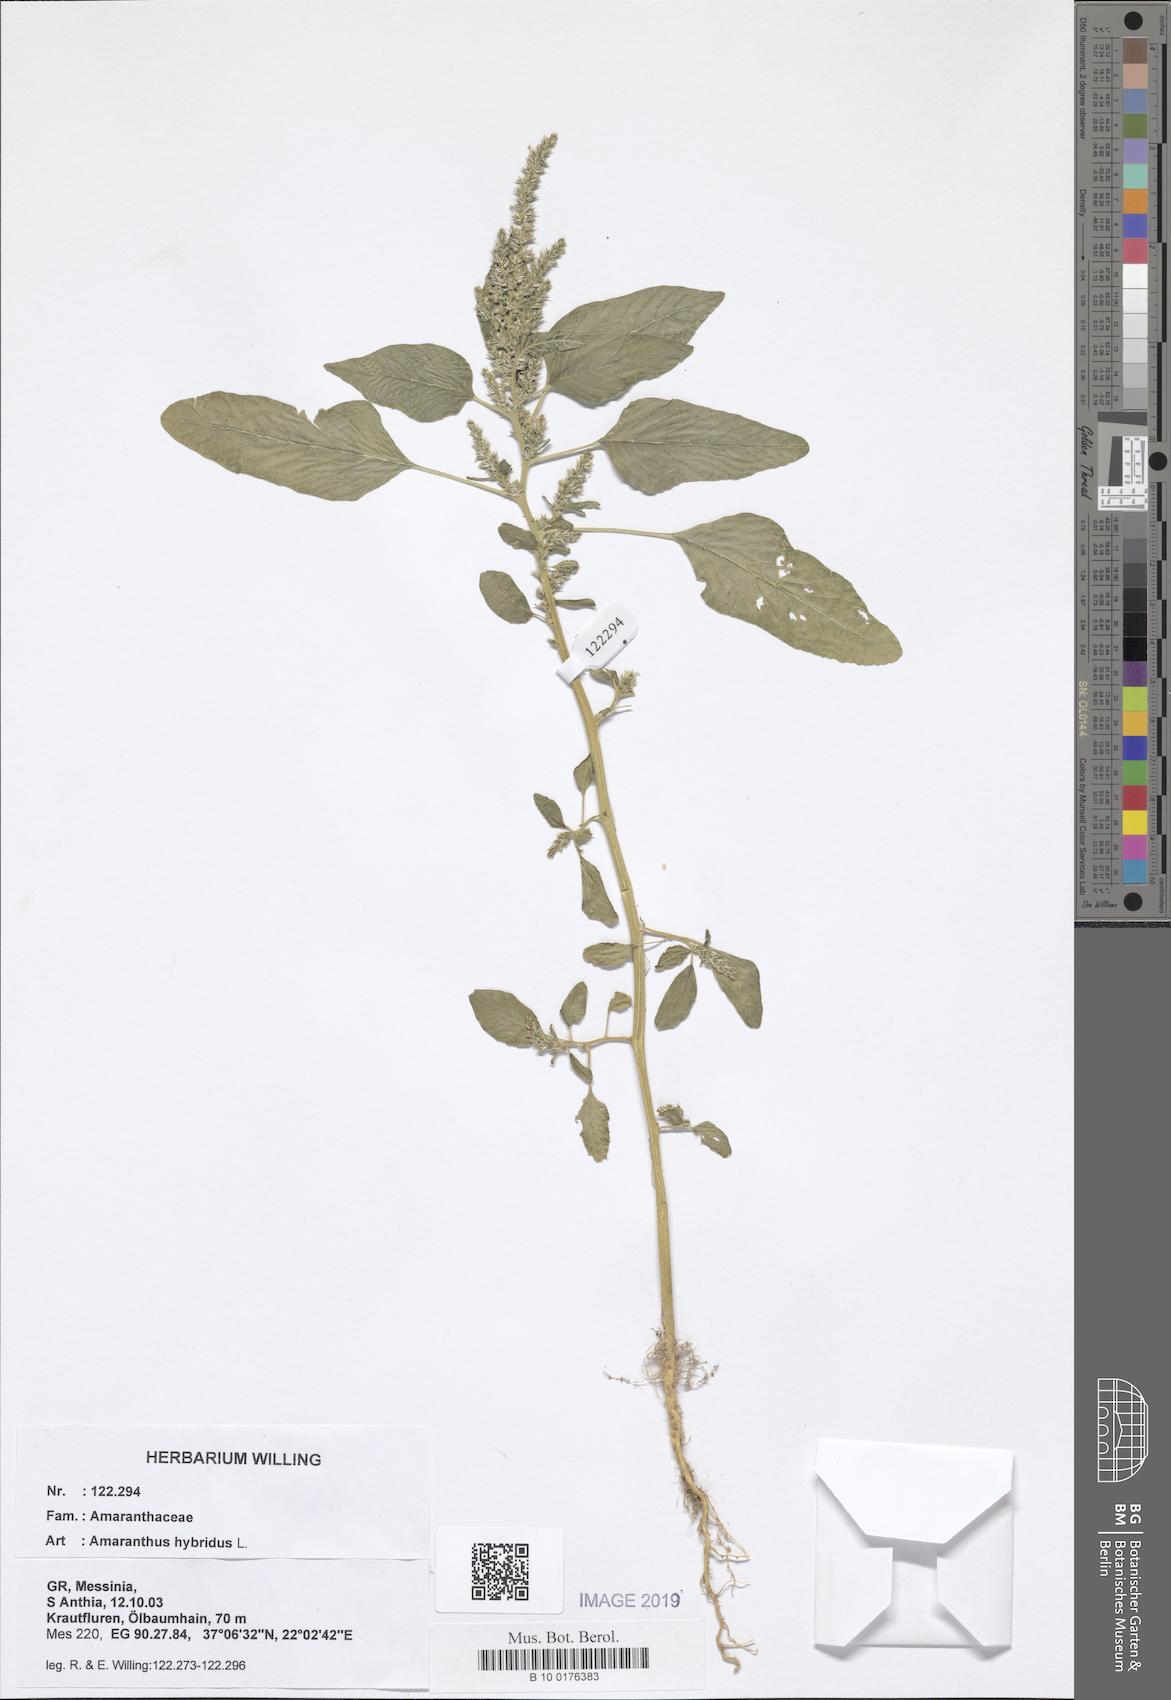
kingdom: Plantae
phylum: Tracheophyta
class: Magnoliopsida
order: Caryophyllales
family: Amaranthaceae
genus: Amaranthus
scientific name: Amaranthus hybridus
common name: Green amaranth
